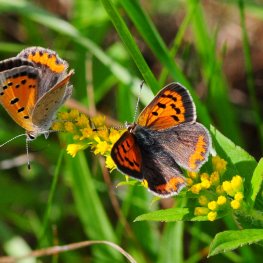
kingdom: Animalia
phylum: Arthropoda
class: Insecta
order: Lepidoptera
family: Lycaenidae
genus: Lycaena
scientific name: Lycaena phlaeas
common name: American Copper
